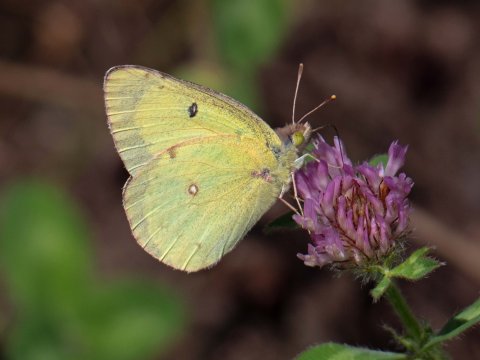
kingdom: Animalia
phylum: Arthropoda
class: Insecta
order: Lepidoptera
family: Pieridae
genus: Colias
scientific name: Colias philodice
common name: Clouded Sulphur
